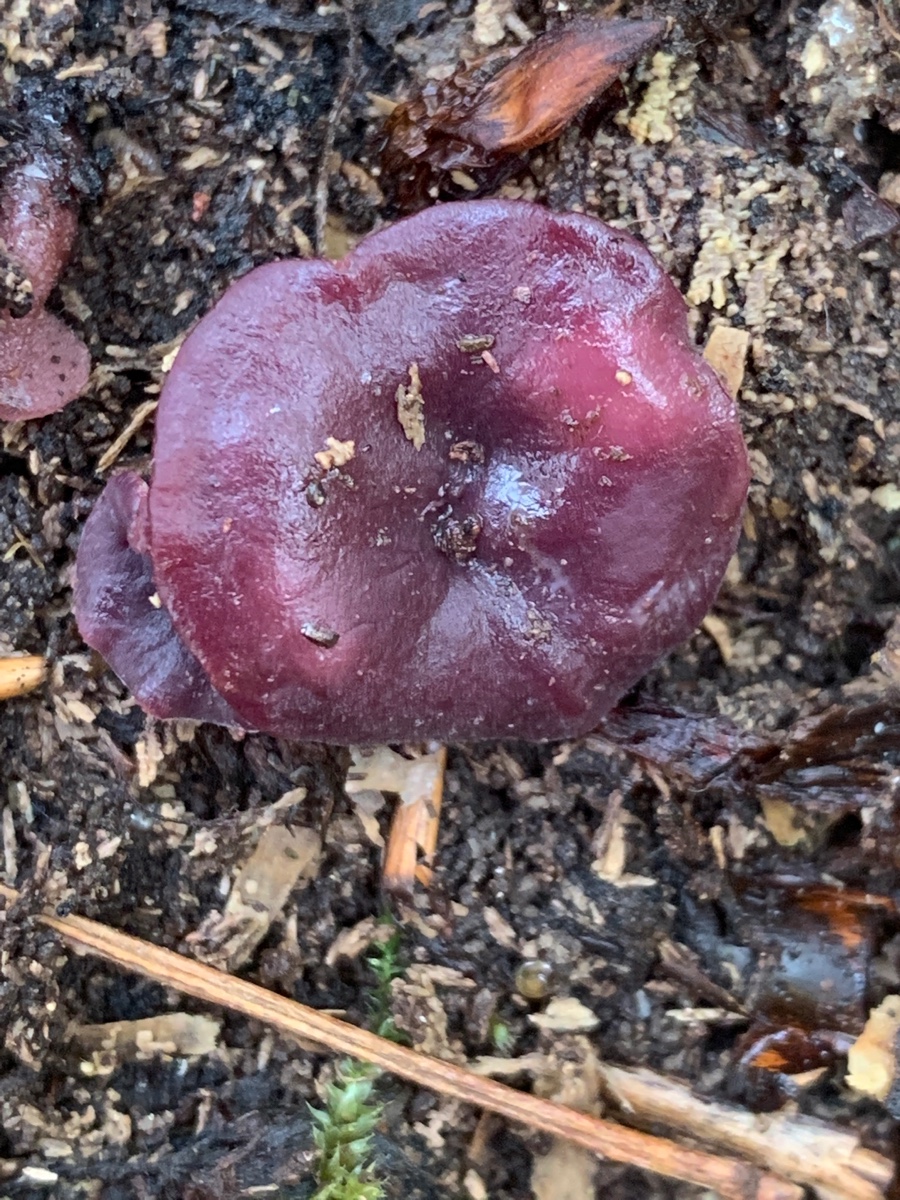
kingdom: Fungi
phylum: Ascomycota
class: Leotiomycetes
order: Helotiales
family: Gelatinodiscaceae
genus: Ascocoryne
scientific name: Ascocoryne cylichnium
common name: stor sejskive
